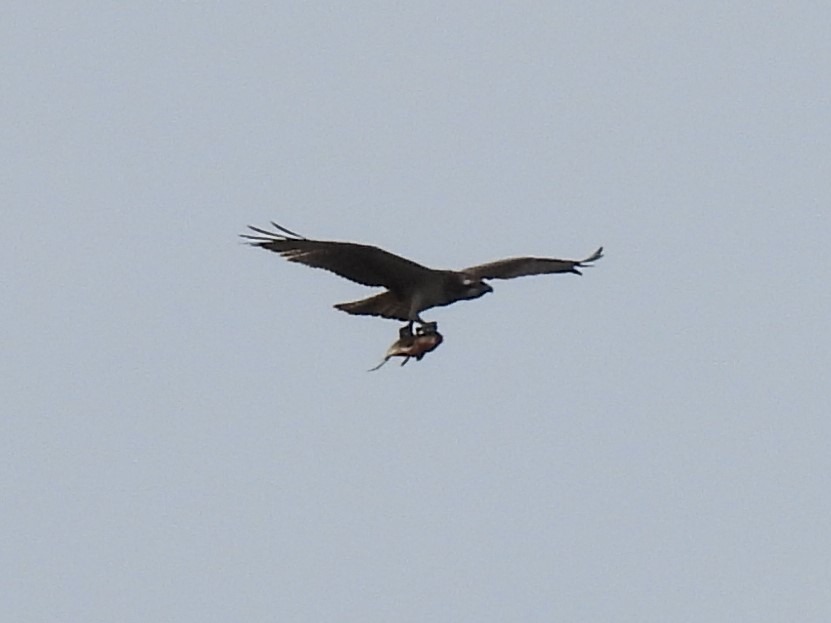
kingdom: Animalia
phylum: Chordata
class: Aves
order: Accipitriformes
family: Pandionidae
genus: Pandion
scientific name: Pandion haliaetus
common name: Fiskeørn
